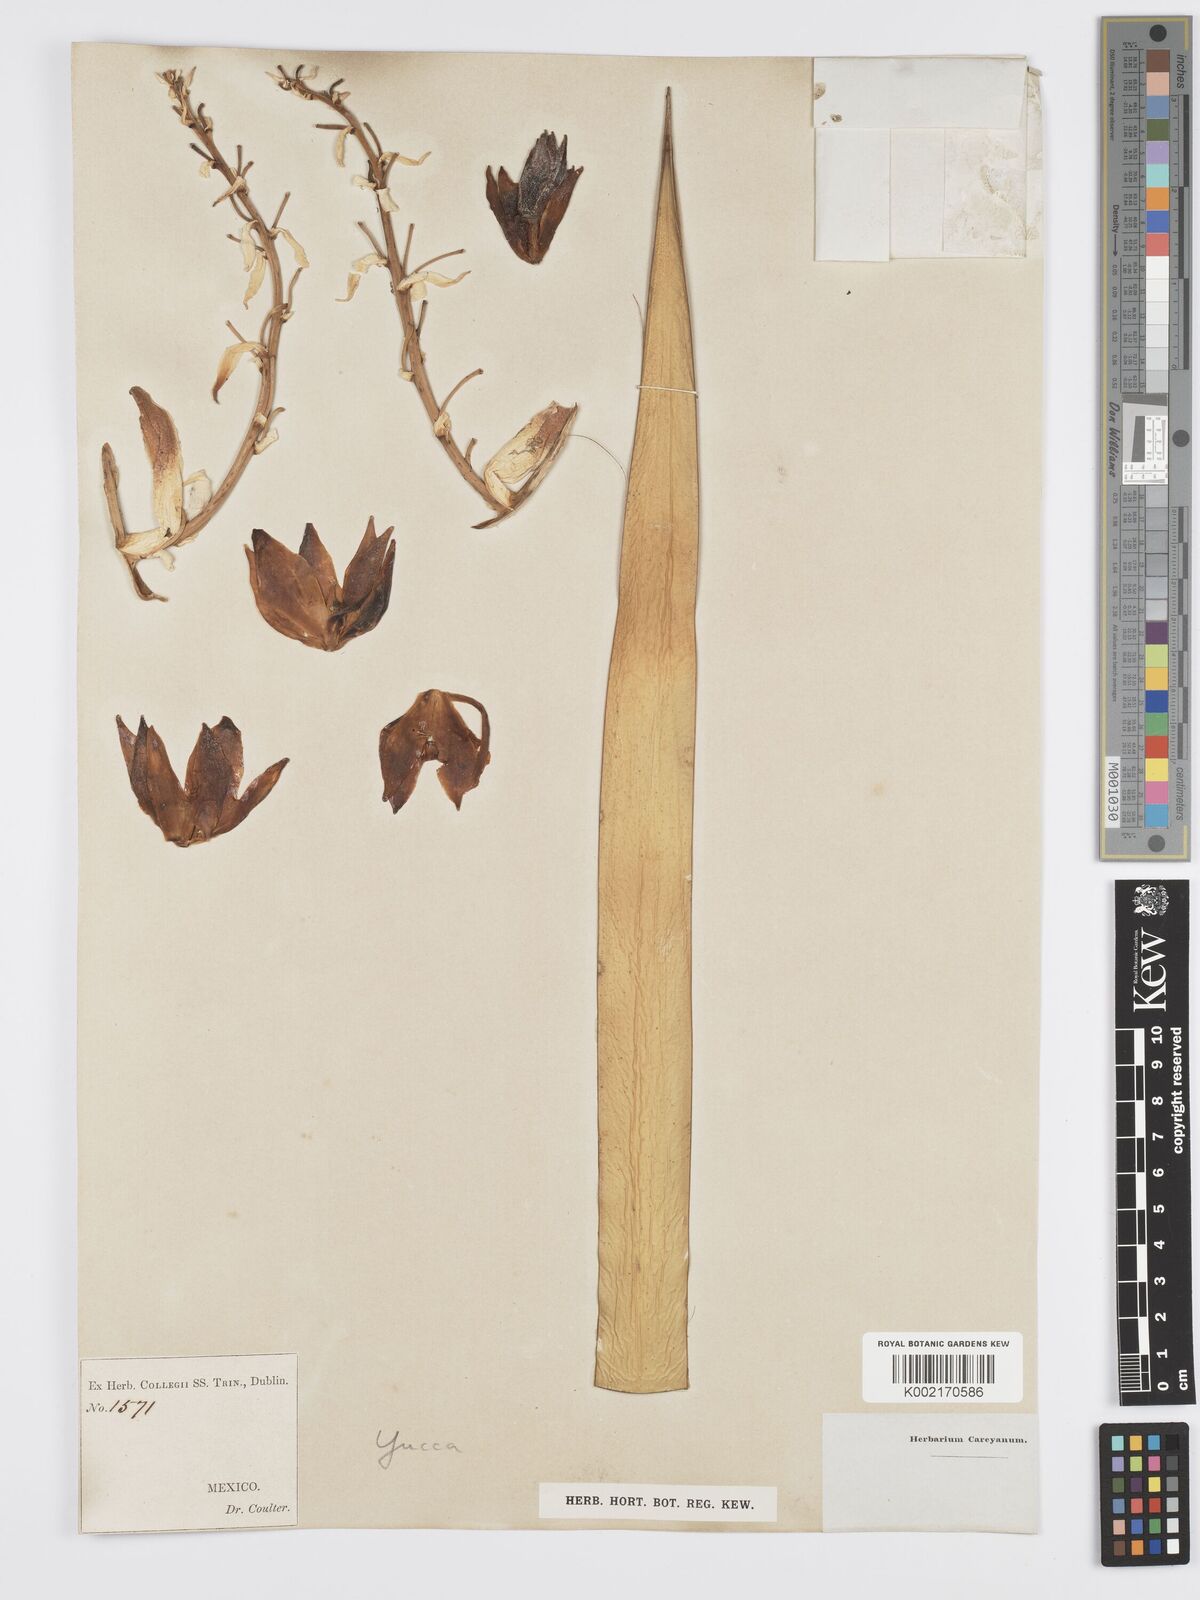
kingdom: Plantae
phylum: Tracheophyta
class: Liliopsida
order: Asparagales
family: Asparagaceae
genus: Yucca
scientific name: Yucca
